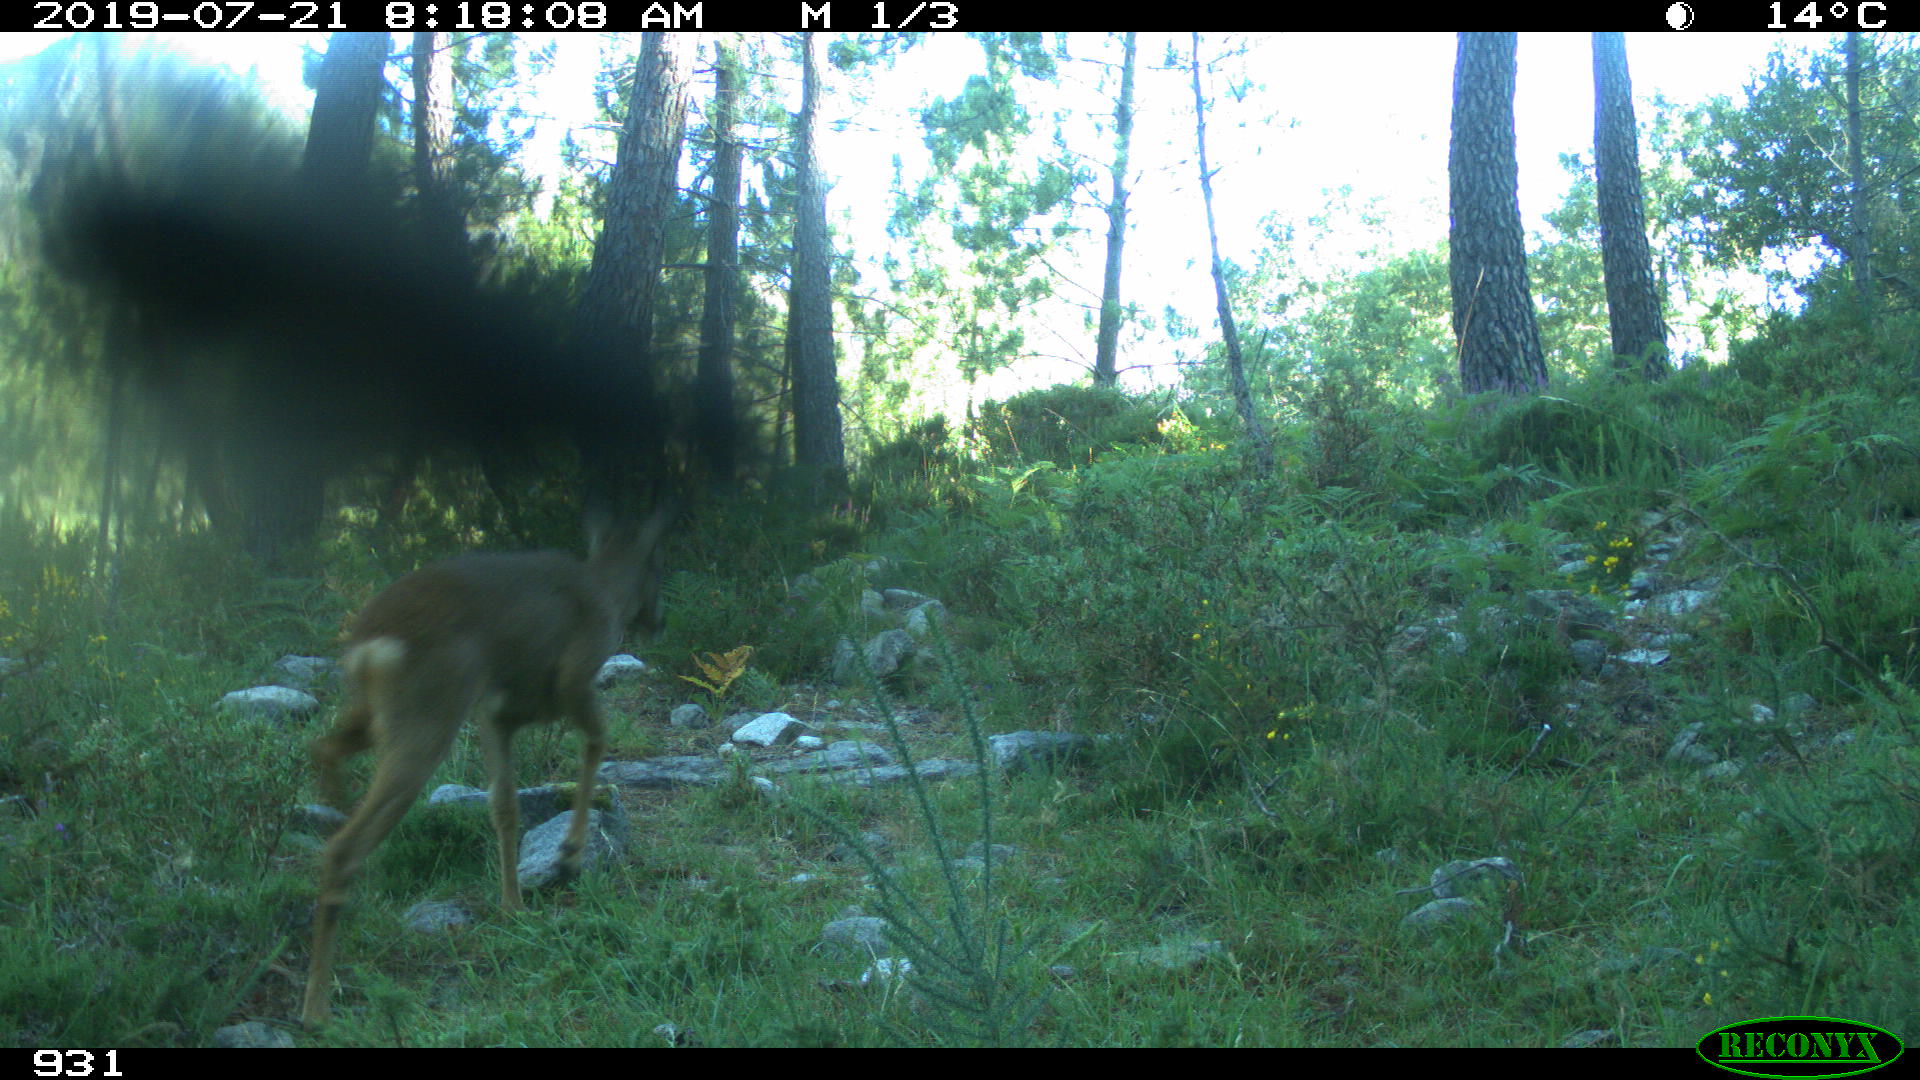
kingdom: Animalia
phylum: Chordata
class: Mammalia
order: Artiodactyla
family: Cervidae
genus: Capreolus
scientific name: Capreolus capreolus
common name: Western roe deer
